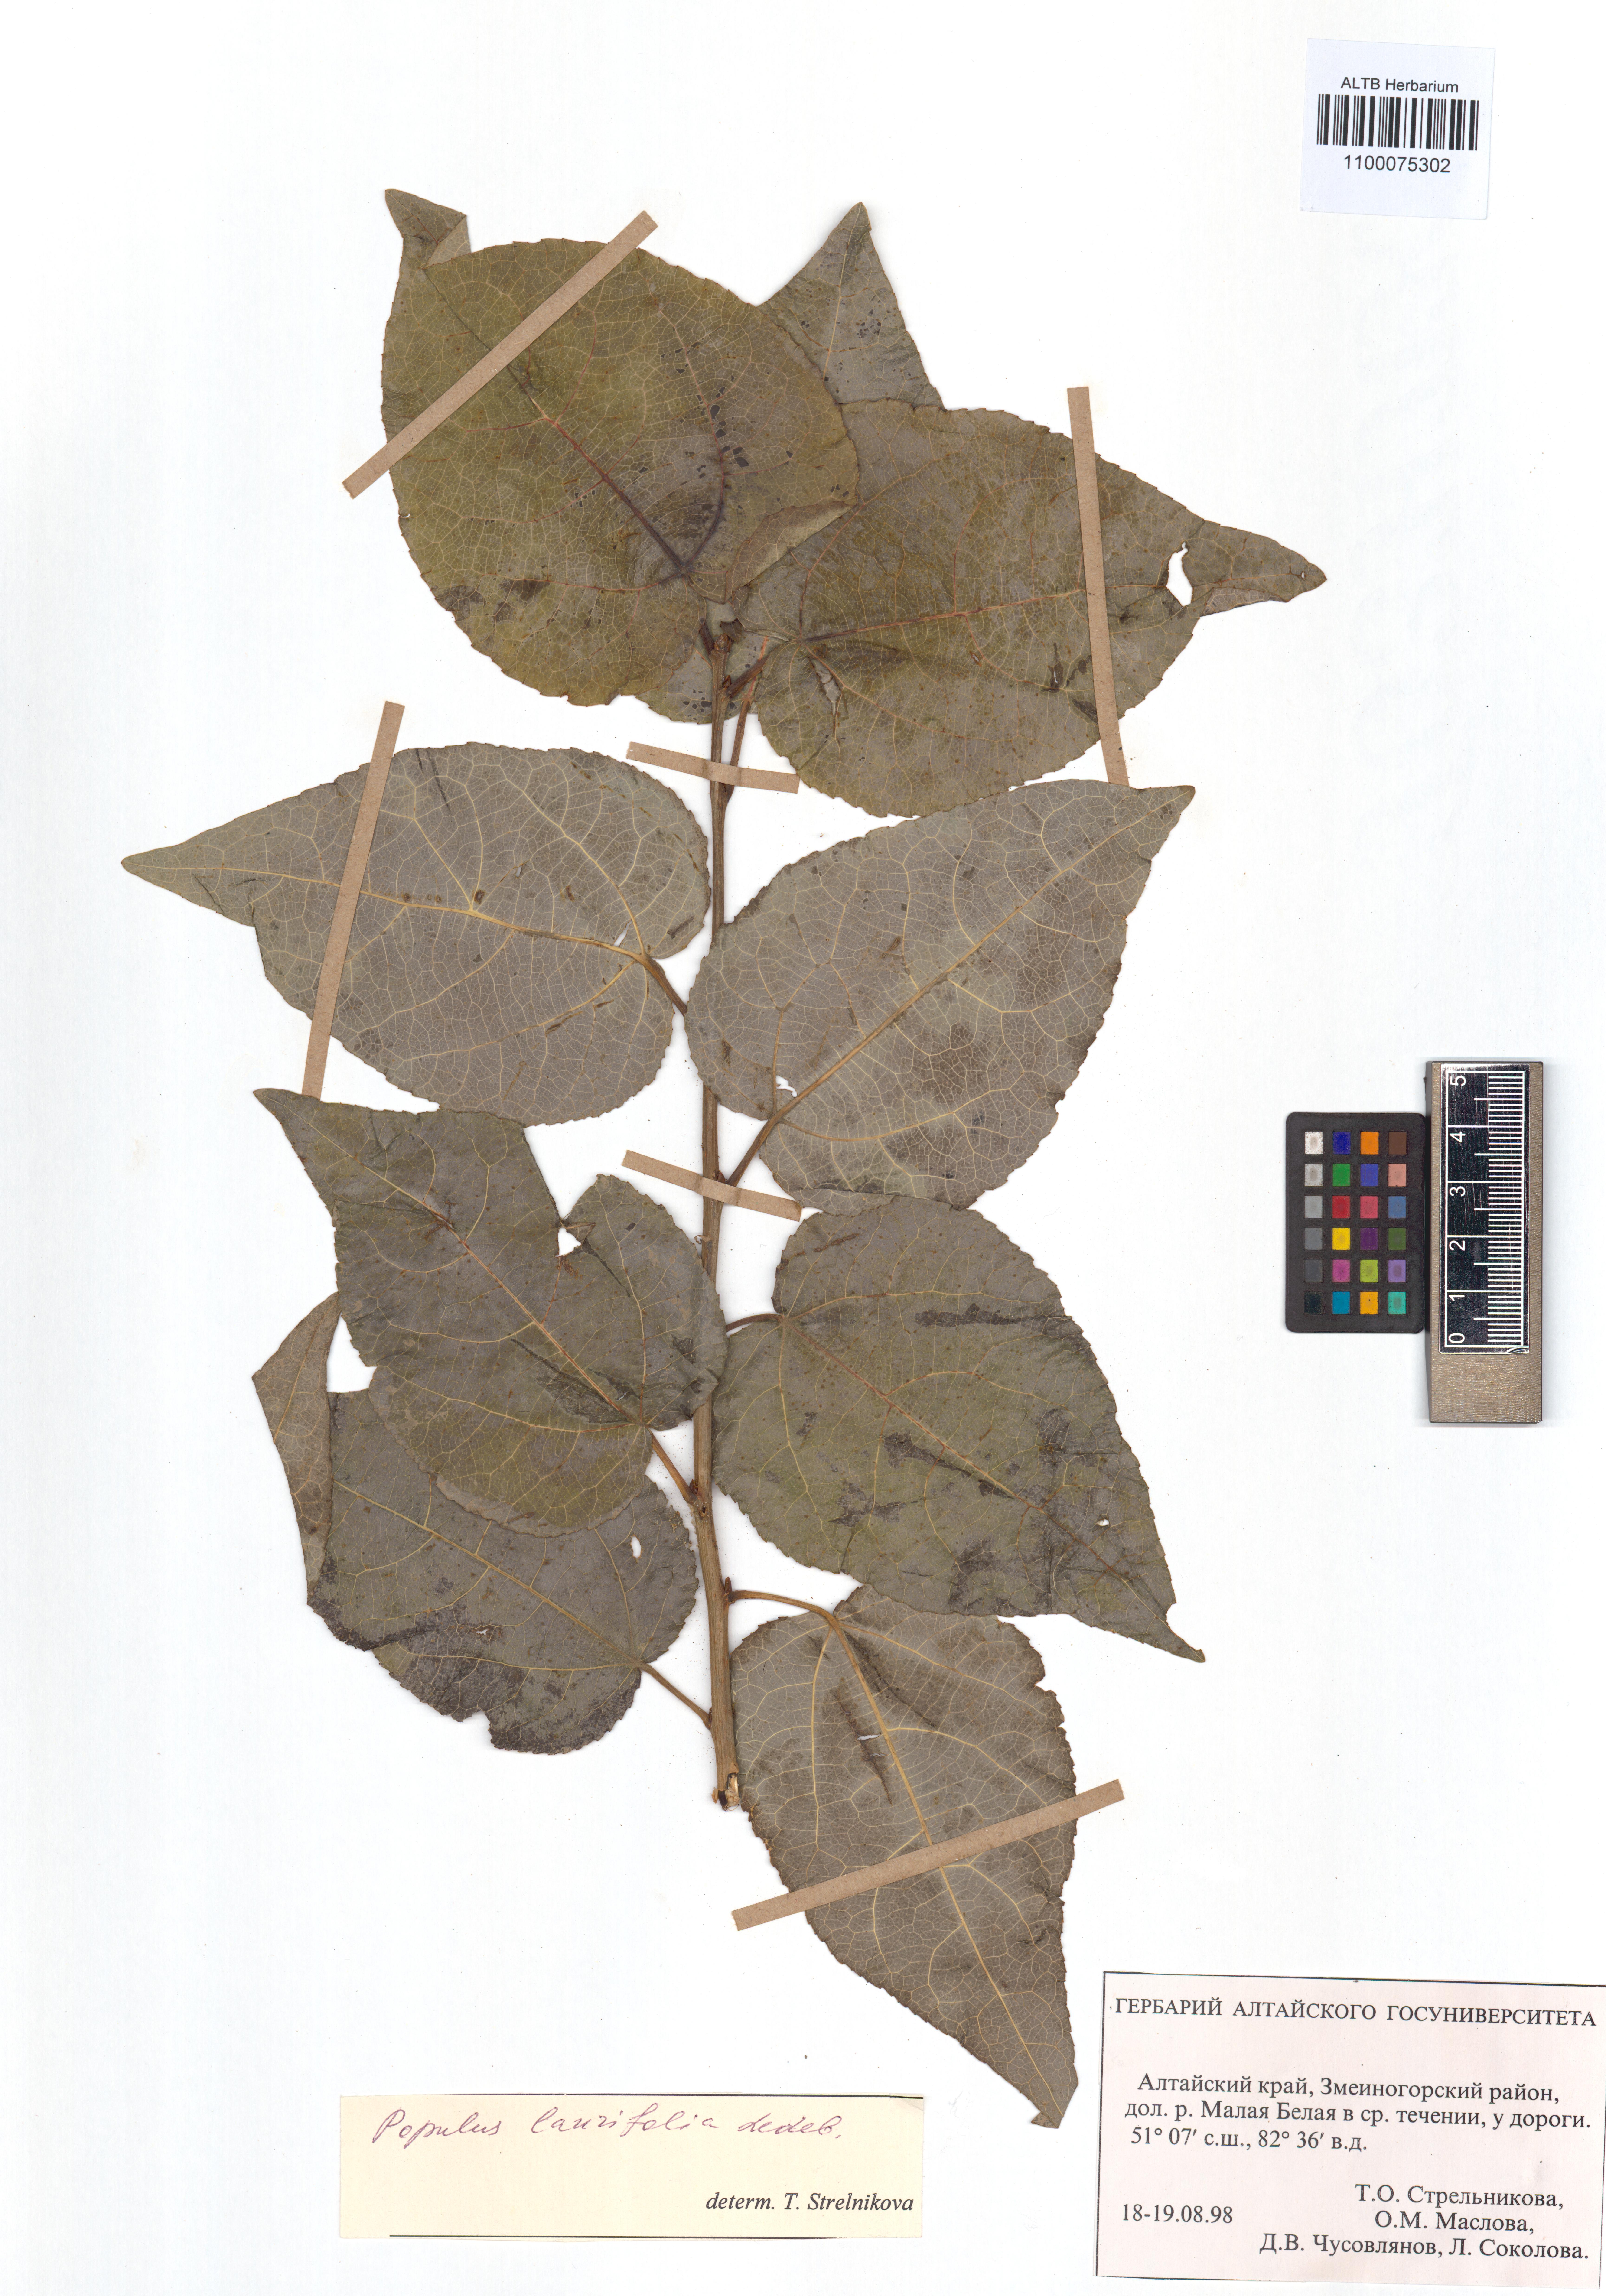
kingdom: Plantae
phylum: Tracheophyta
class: Magnoliopsida
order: Malpighiales
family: Salicaceae
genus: Populus
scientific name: Populus laurifolia
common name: Laurel-leaf poplar
